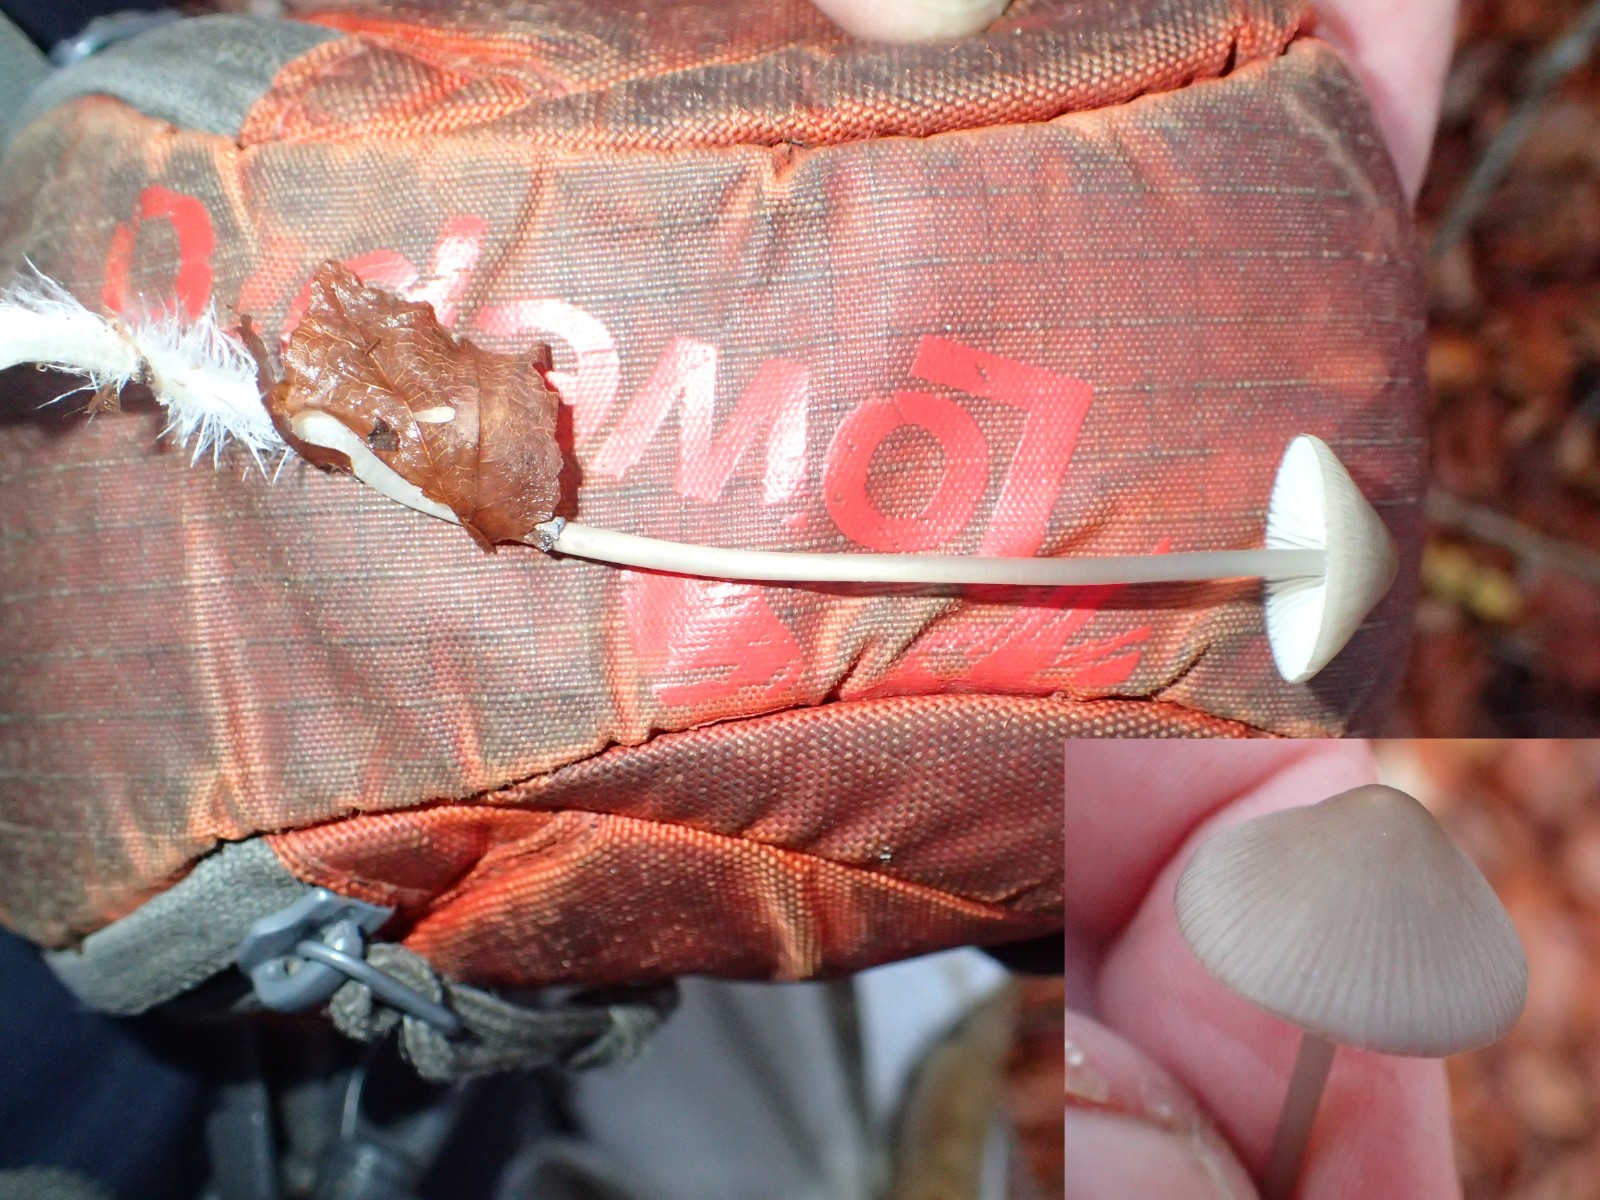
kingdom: Fungi
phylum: Basidiomycota
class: Agaricomycetes
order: Agaricales
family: Mycenaceae
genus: Mycena
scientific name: Mycena vitilis
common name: blankstokket huesvamp
